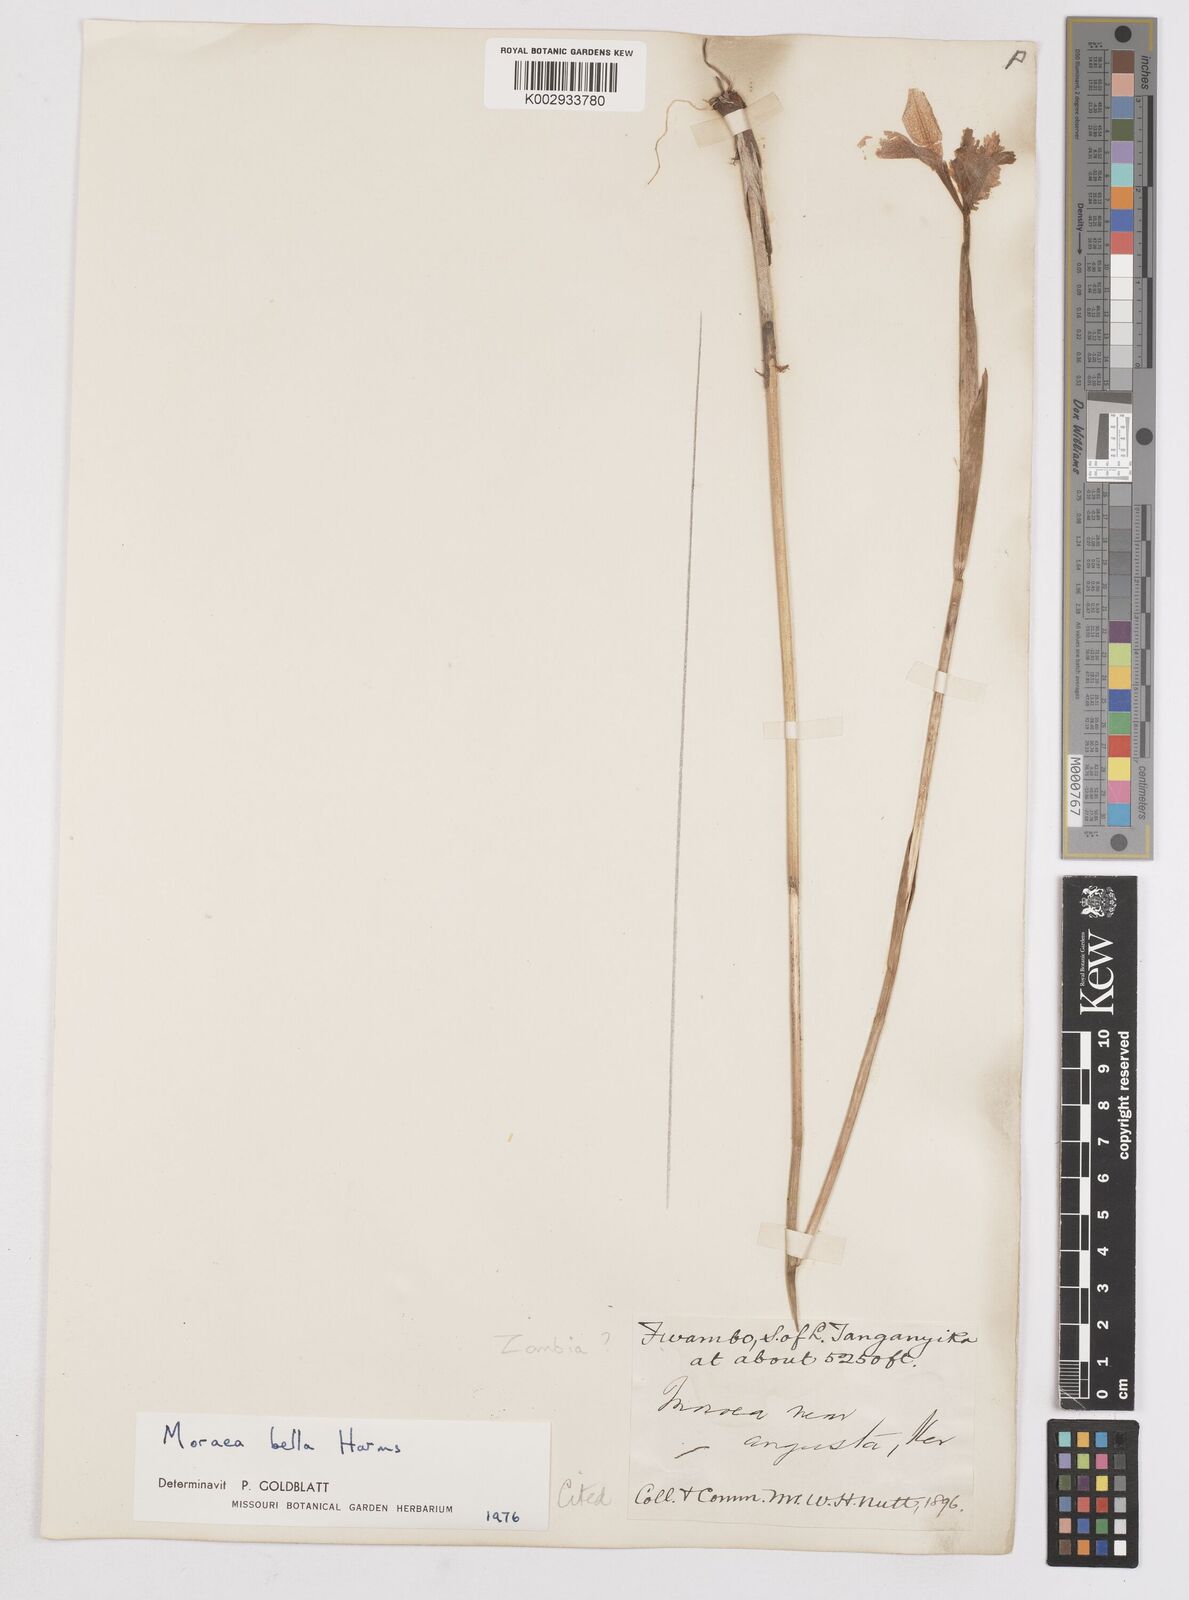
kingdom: Plantae
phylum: Tracheophyta
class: Liliopsida
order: Asparagales
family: Iridaceae
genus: Moraea
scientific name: Moraea bella
